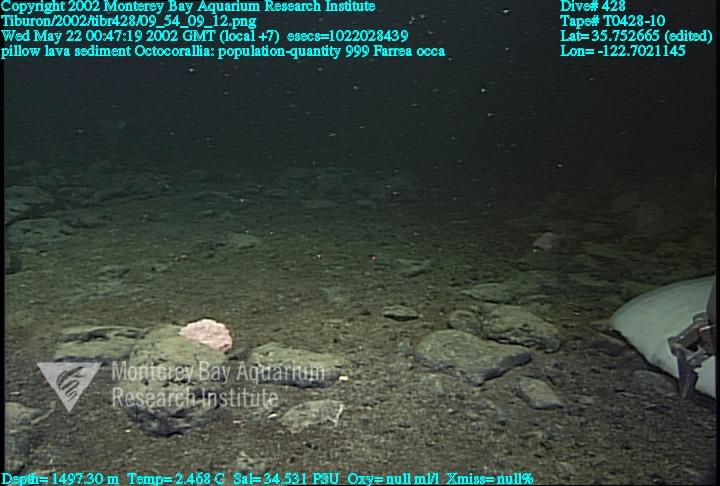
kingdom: Animalia
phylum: Porifera
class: Hexactinellida
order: Sceptrulophora
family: Farreidae
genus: Farrea
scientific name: Farrea occa
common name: Reversed glass sponge
